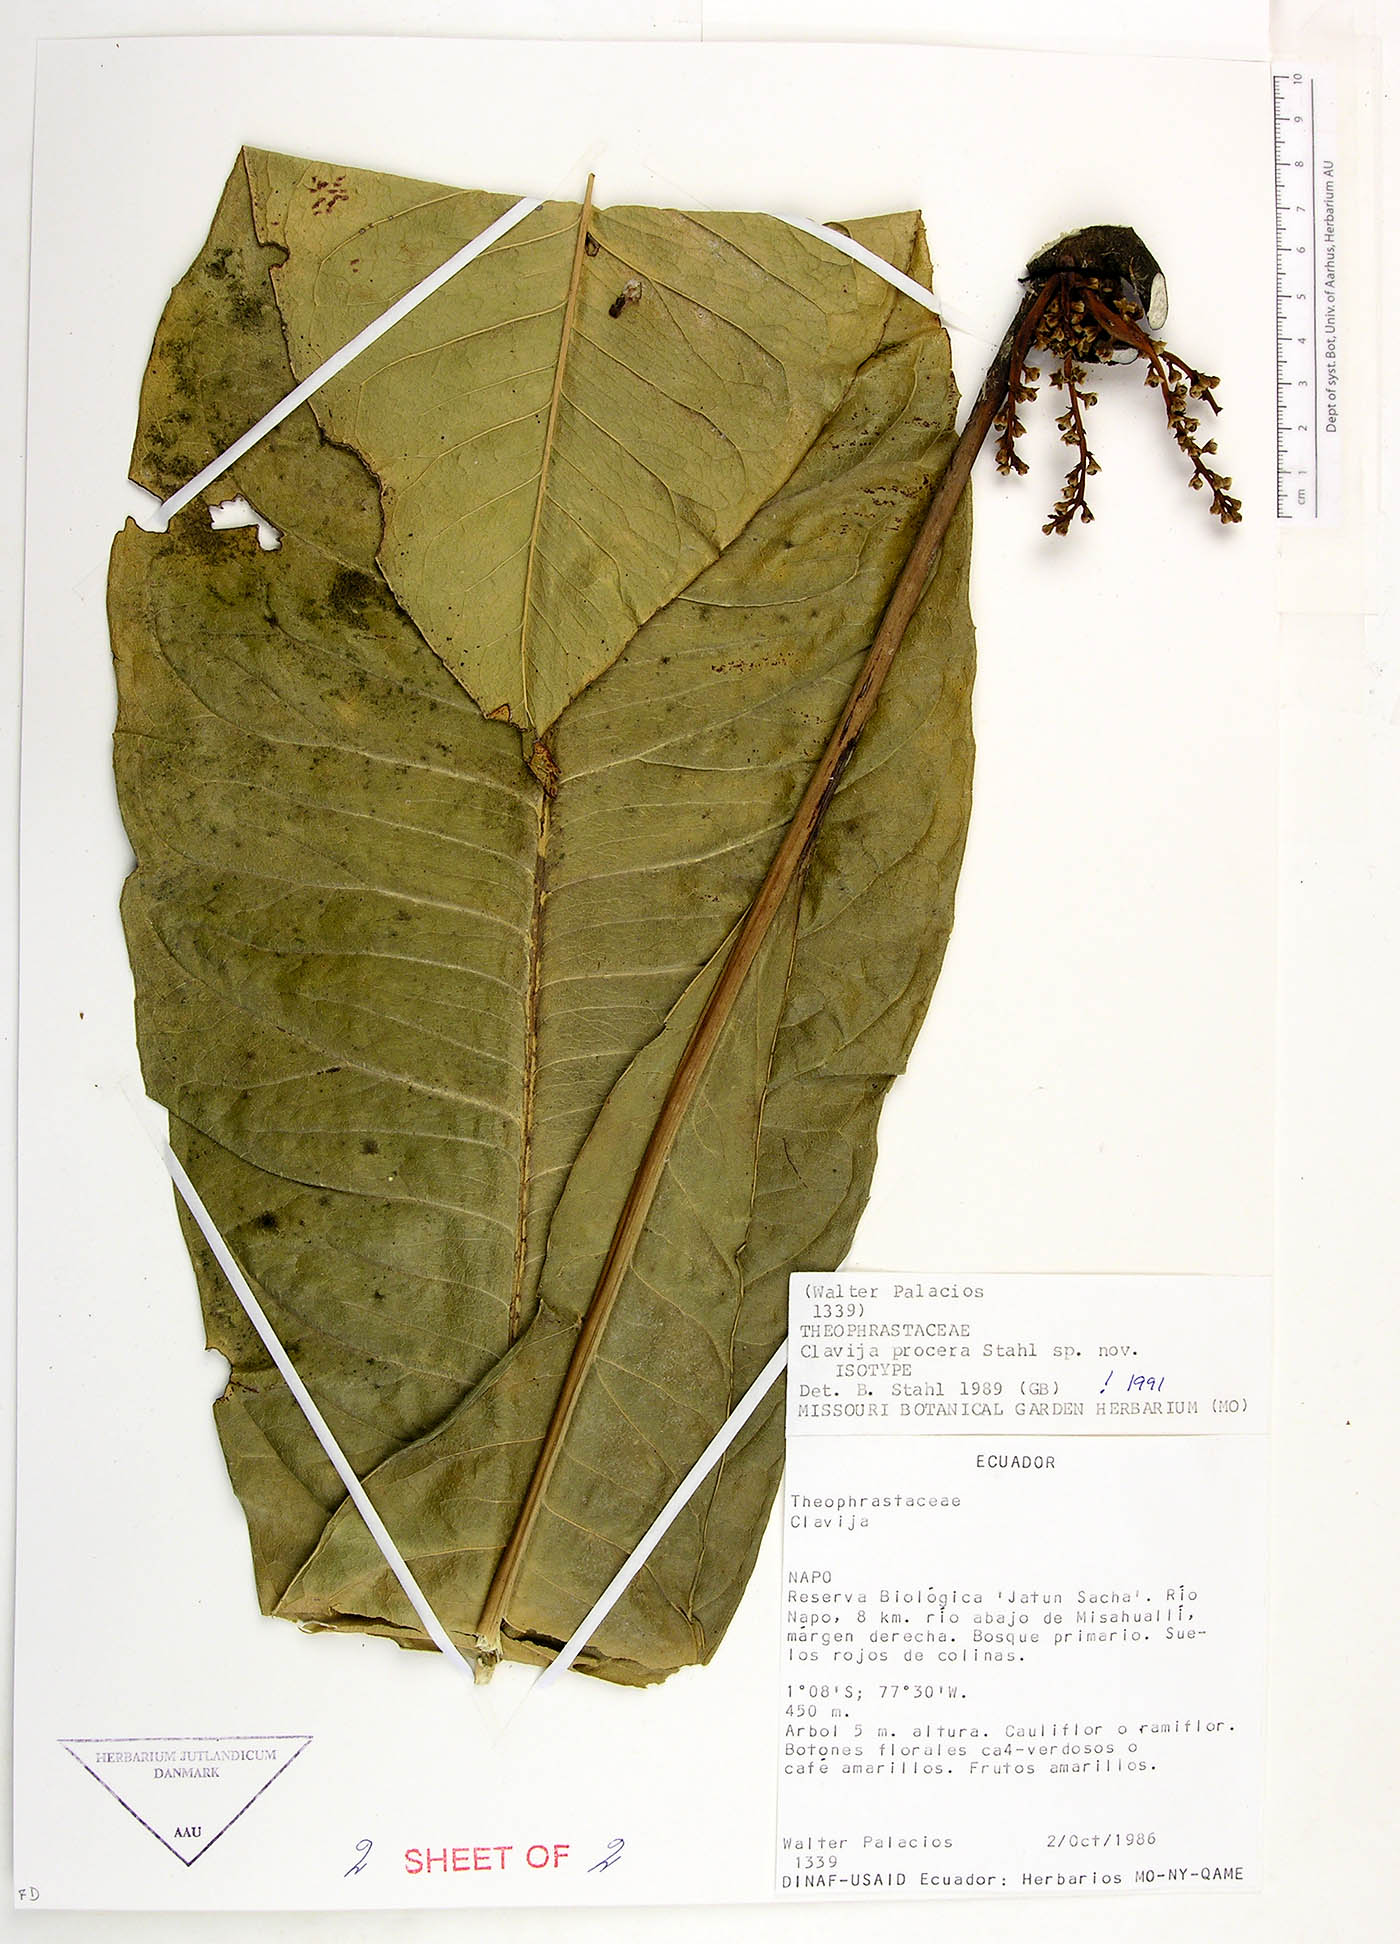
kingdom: Plantae
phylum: Tracheophyta
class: Magnoliopsida
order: Ericales
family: Primulaceae
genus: Clavija
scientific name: Clavija procera
